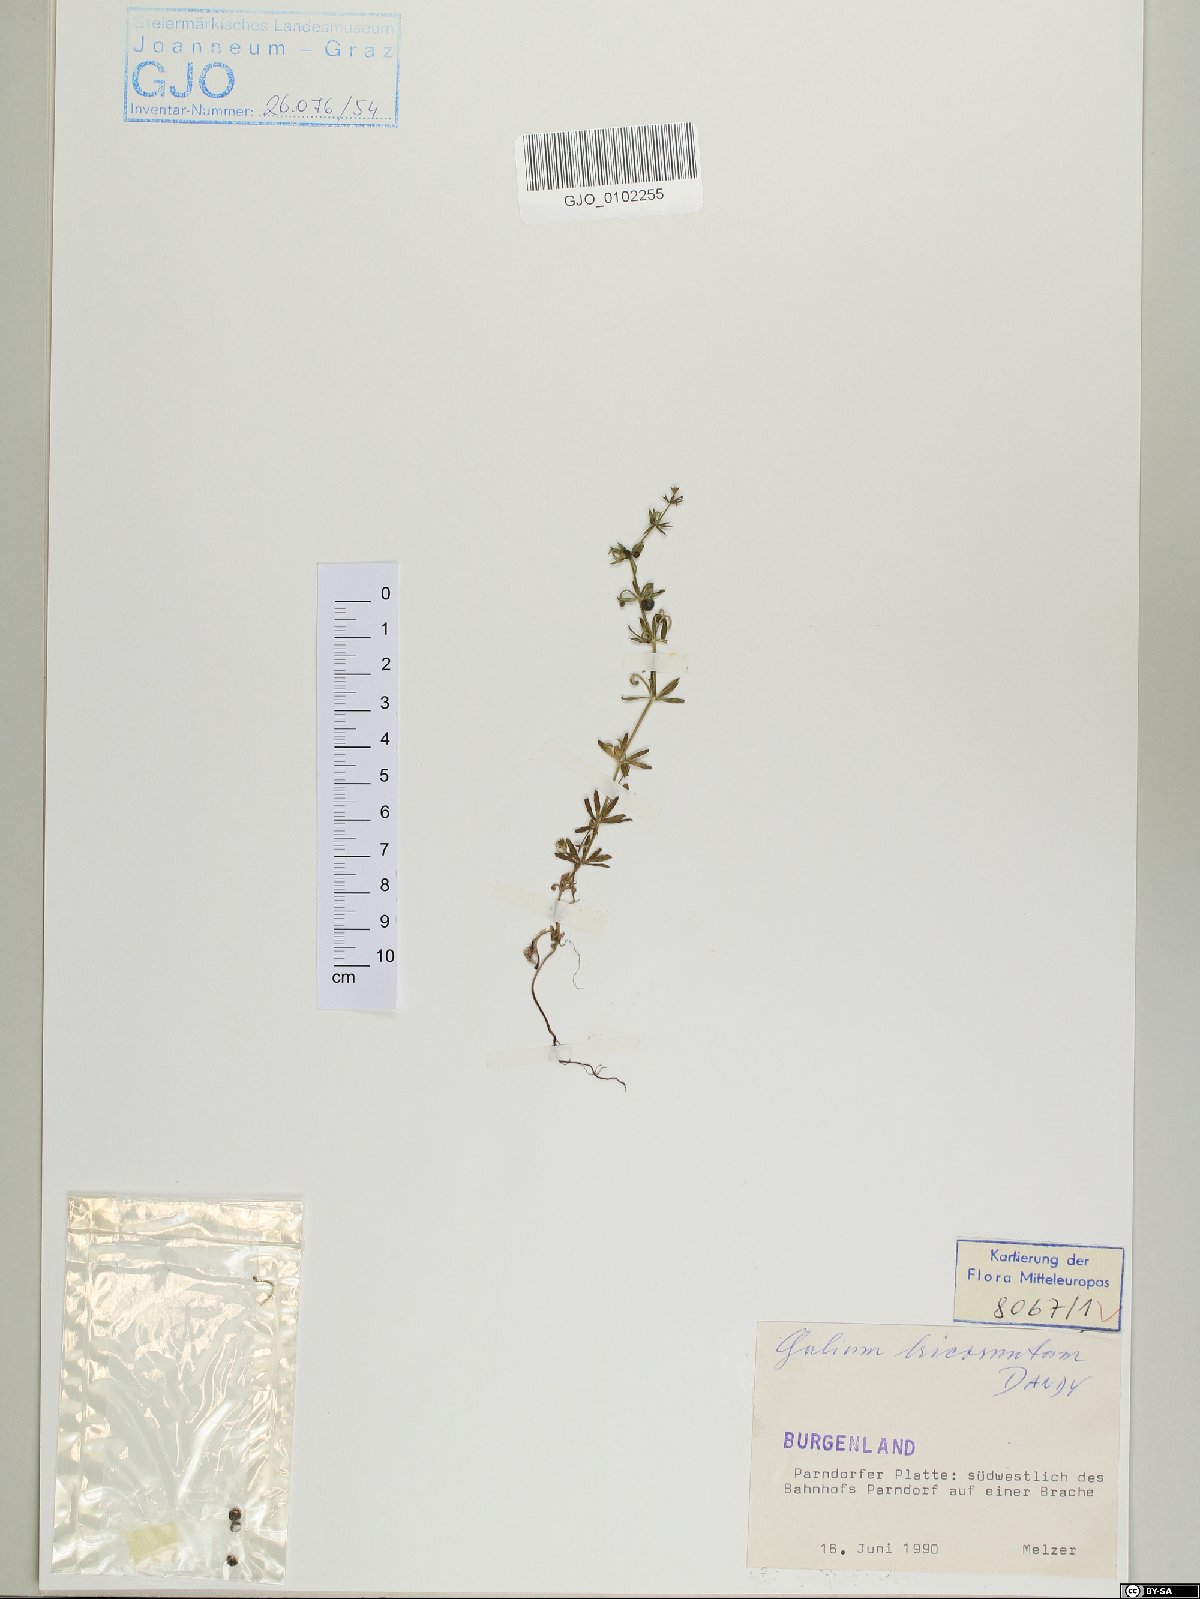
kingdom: Plantae
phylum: Tracheophyta
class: Magnoliopsida
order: Gentianales
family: Rubiaceae
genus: Galium
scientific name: Galium tricornutum
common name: Corn cleavers
